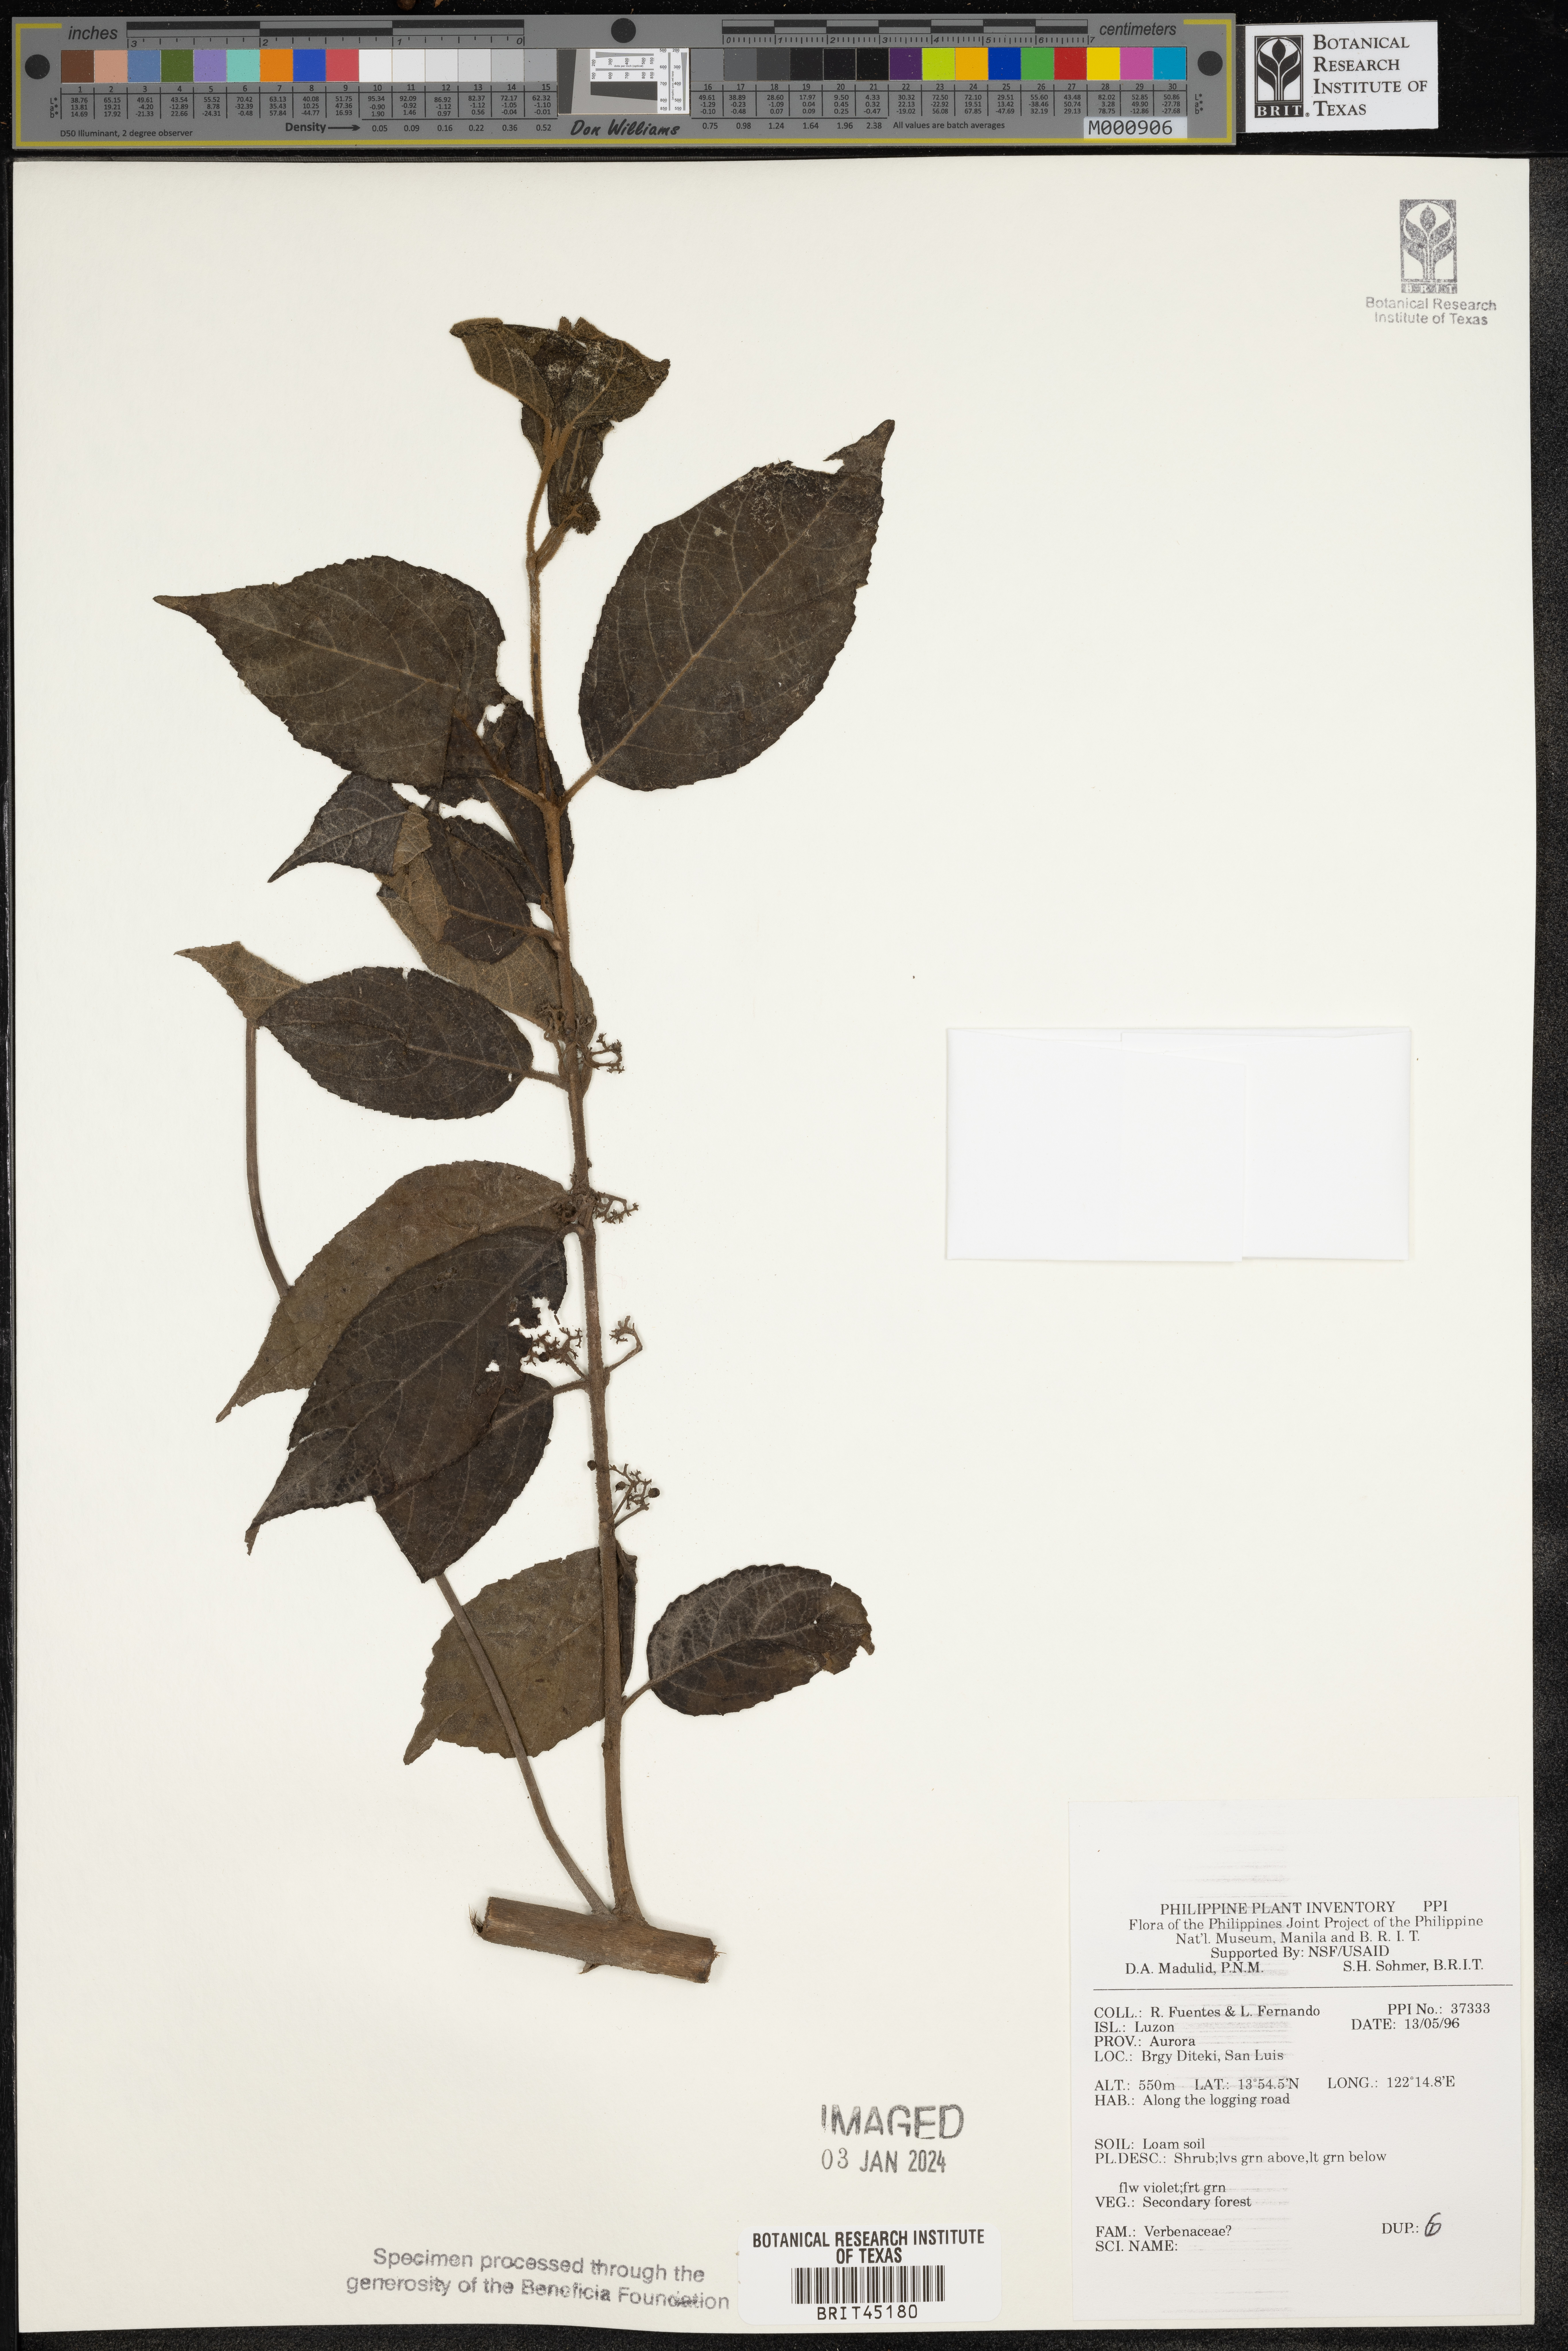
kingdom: Plantae
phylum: Tracheophyta
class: Magnoliopsida
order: Lamiales
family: Verbenaceae
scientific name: Verbenaceae
